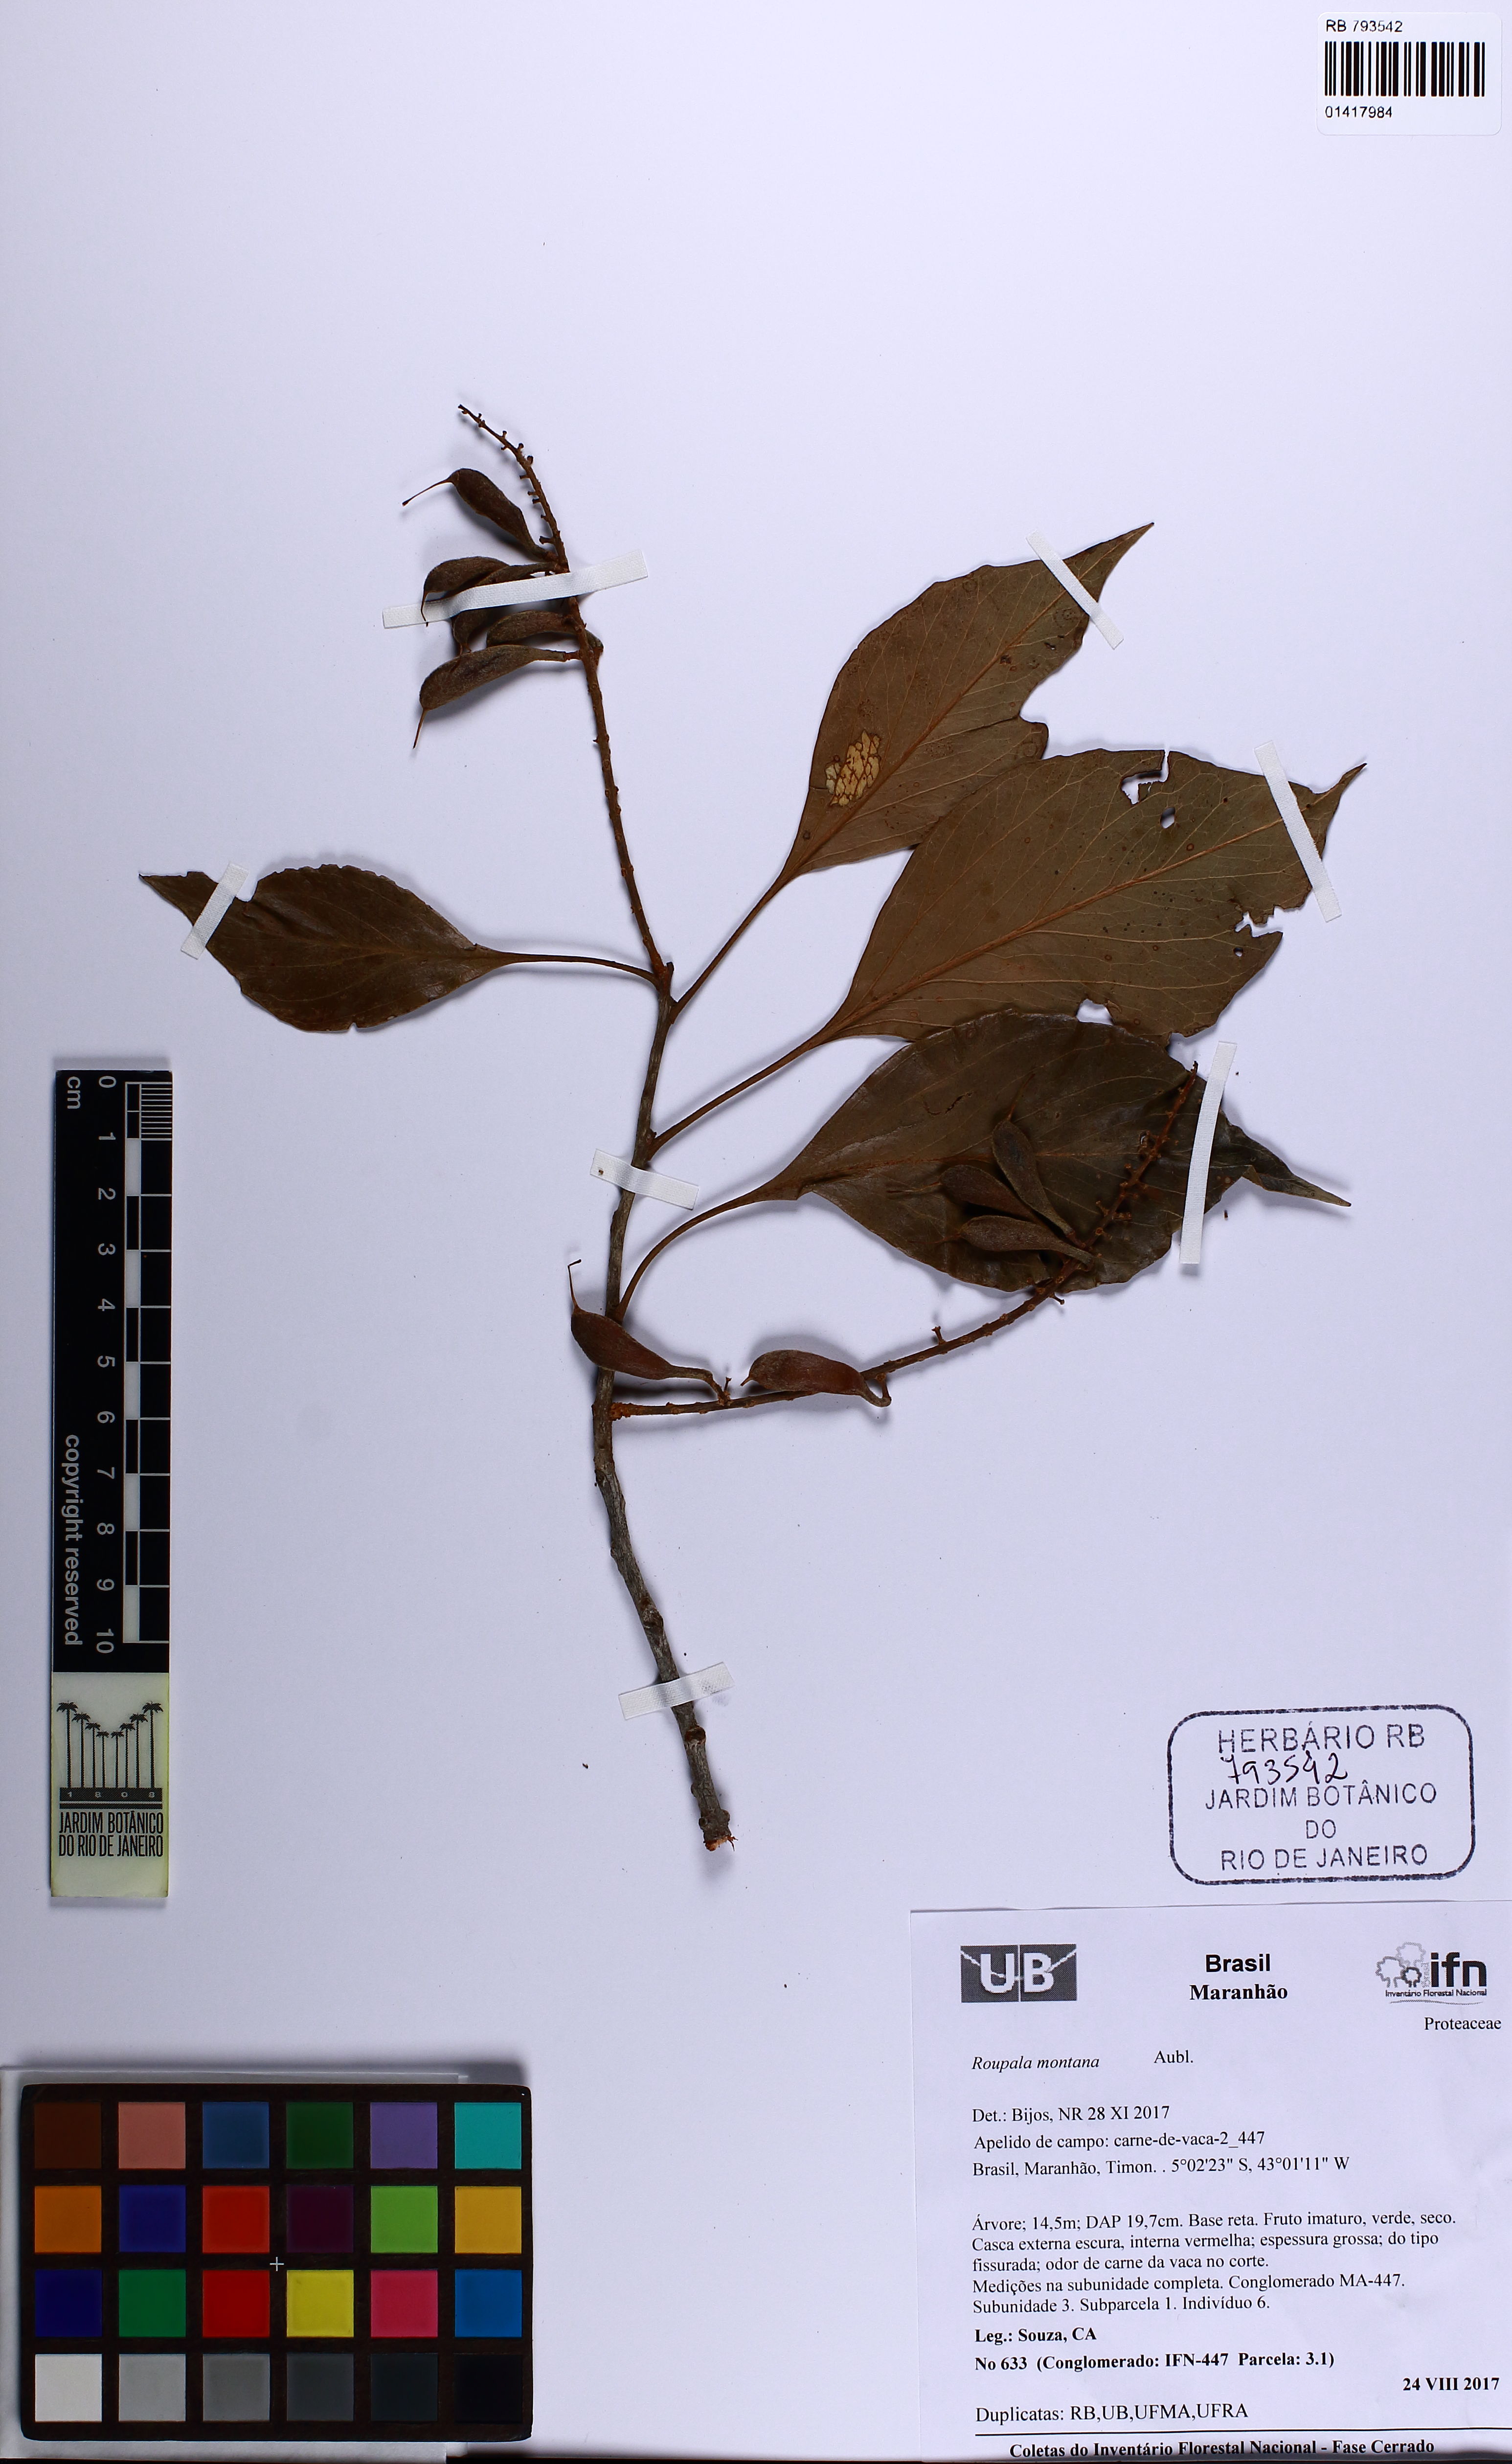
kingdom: Plantae
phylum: Tracheophyta
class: Magnoliopsida
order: Proteales
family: Proteaceae
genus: Roupala
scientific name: Roupala montana
